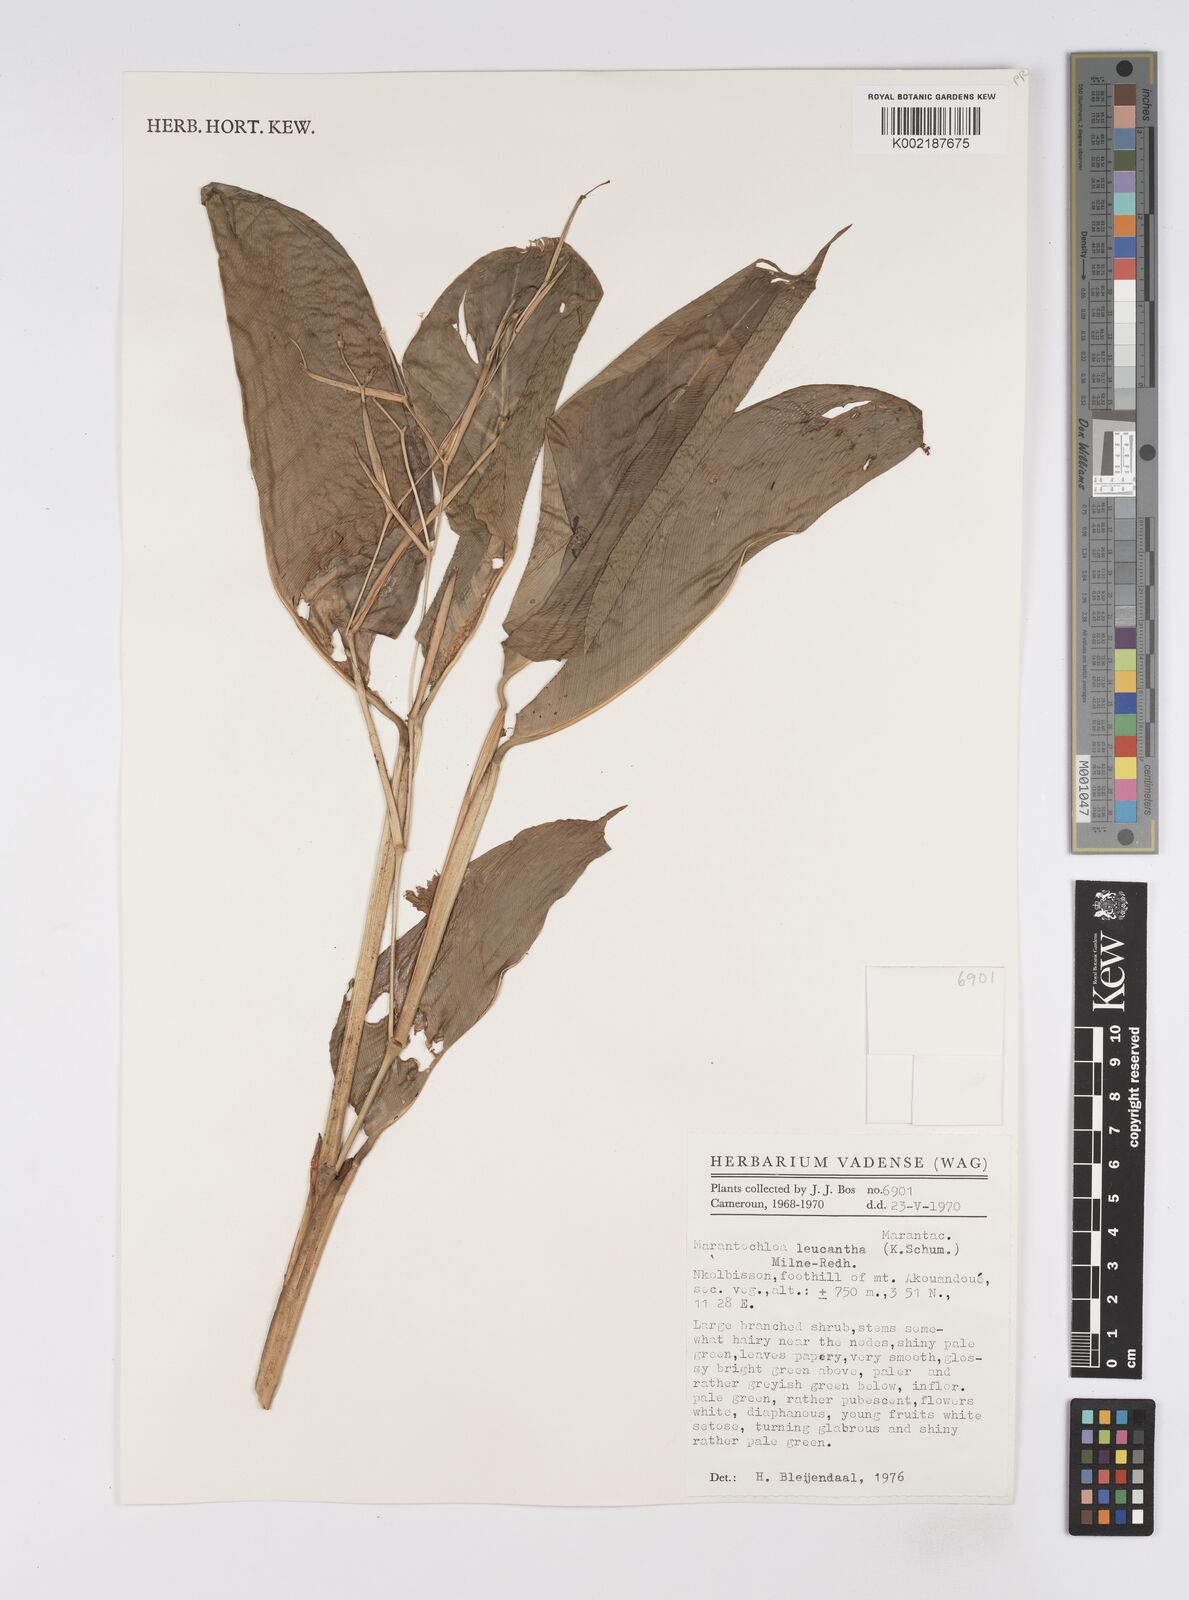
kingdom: Plantae
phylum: Tracheophyta
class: Liliopsida
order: Zingiberales
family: Marantaceae
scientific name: Marantaceae
